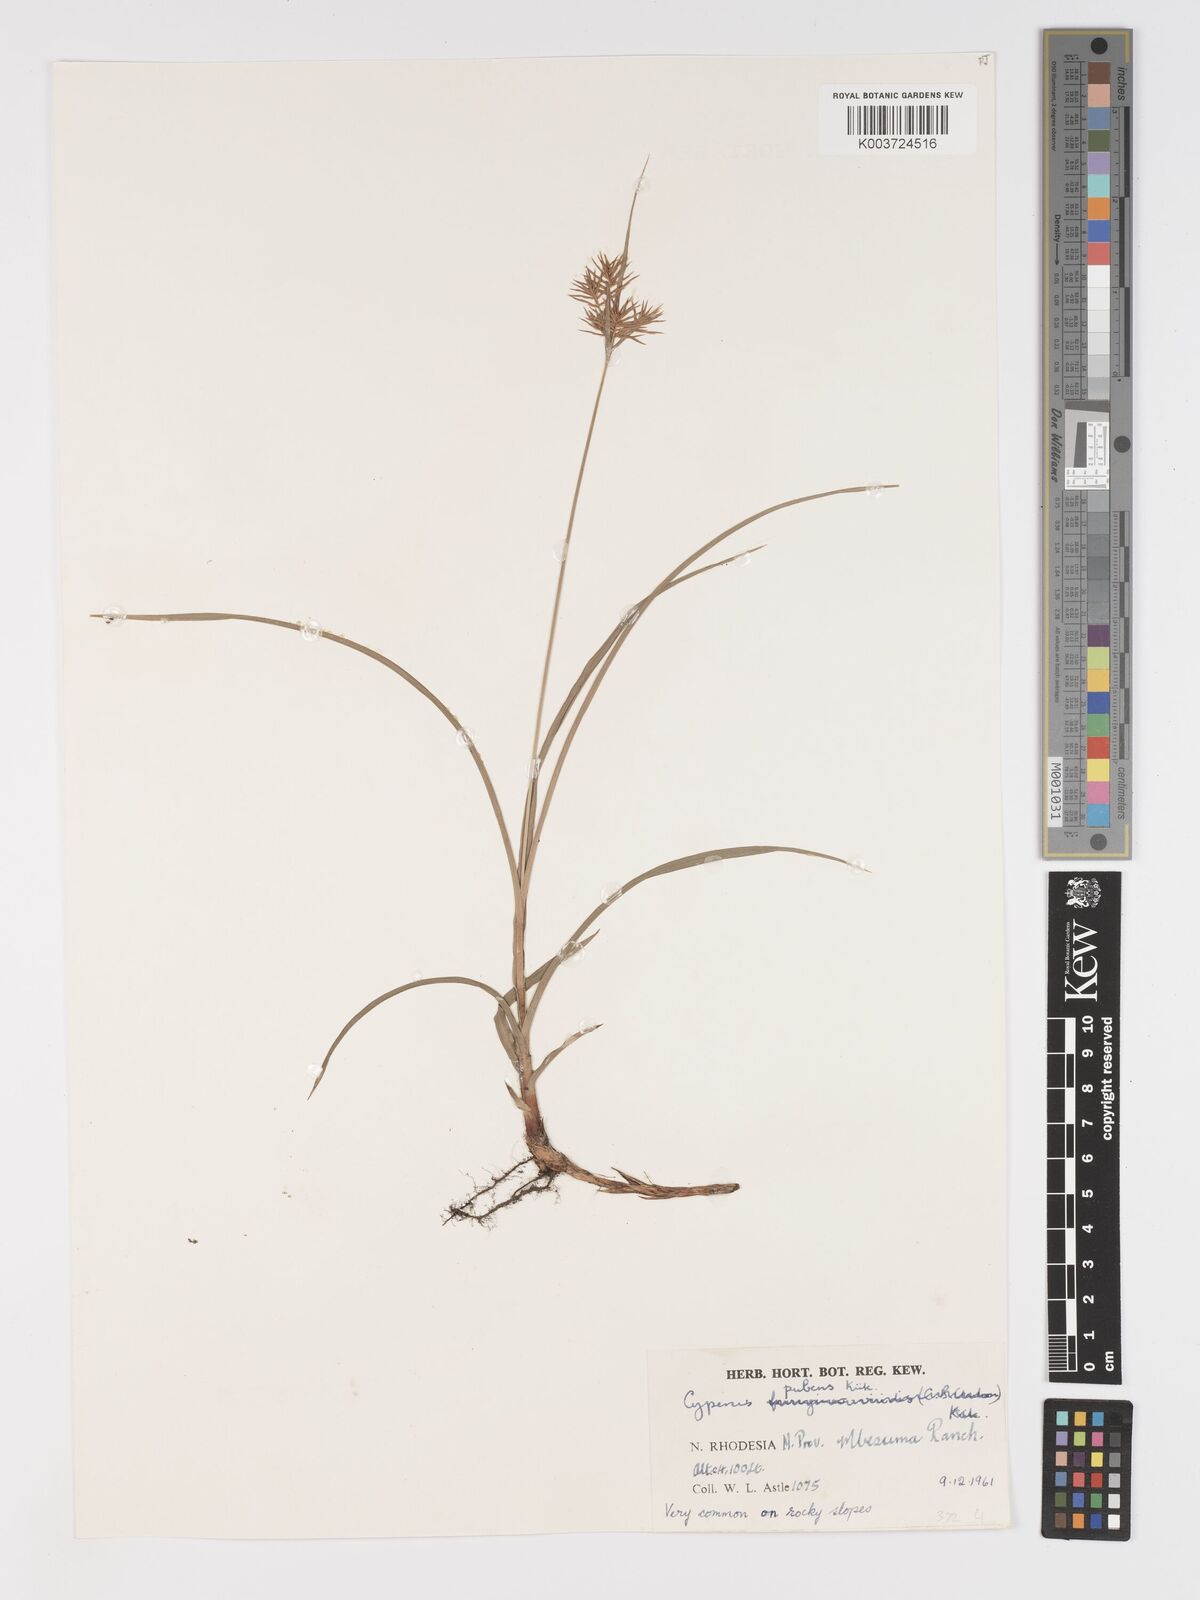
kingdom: Plantae
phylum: Tracheophyta
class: Liliopsida
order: Poales
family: Cyperaceae
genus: Cyperus
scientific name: Cyperus pubens
